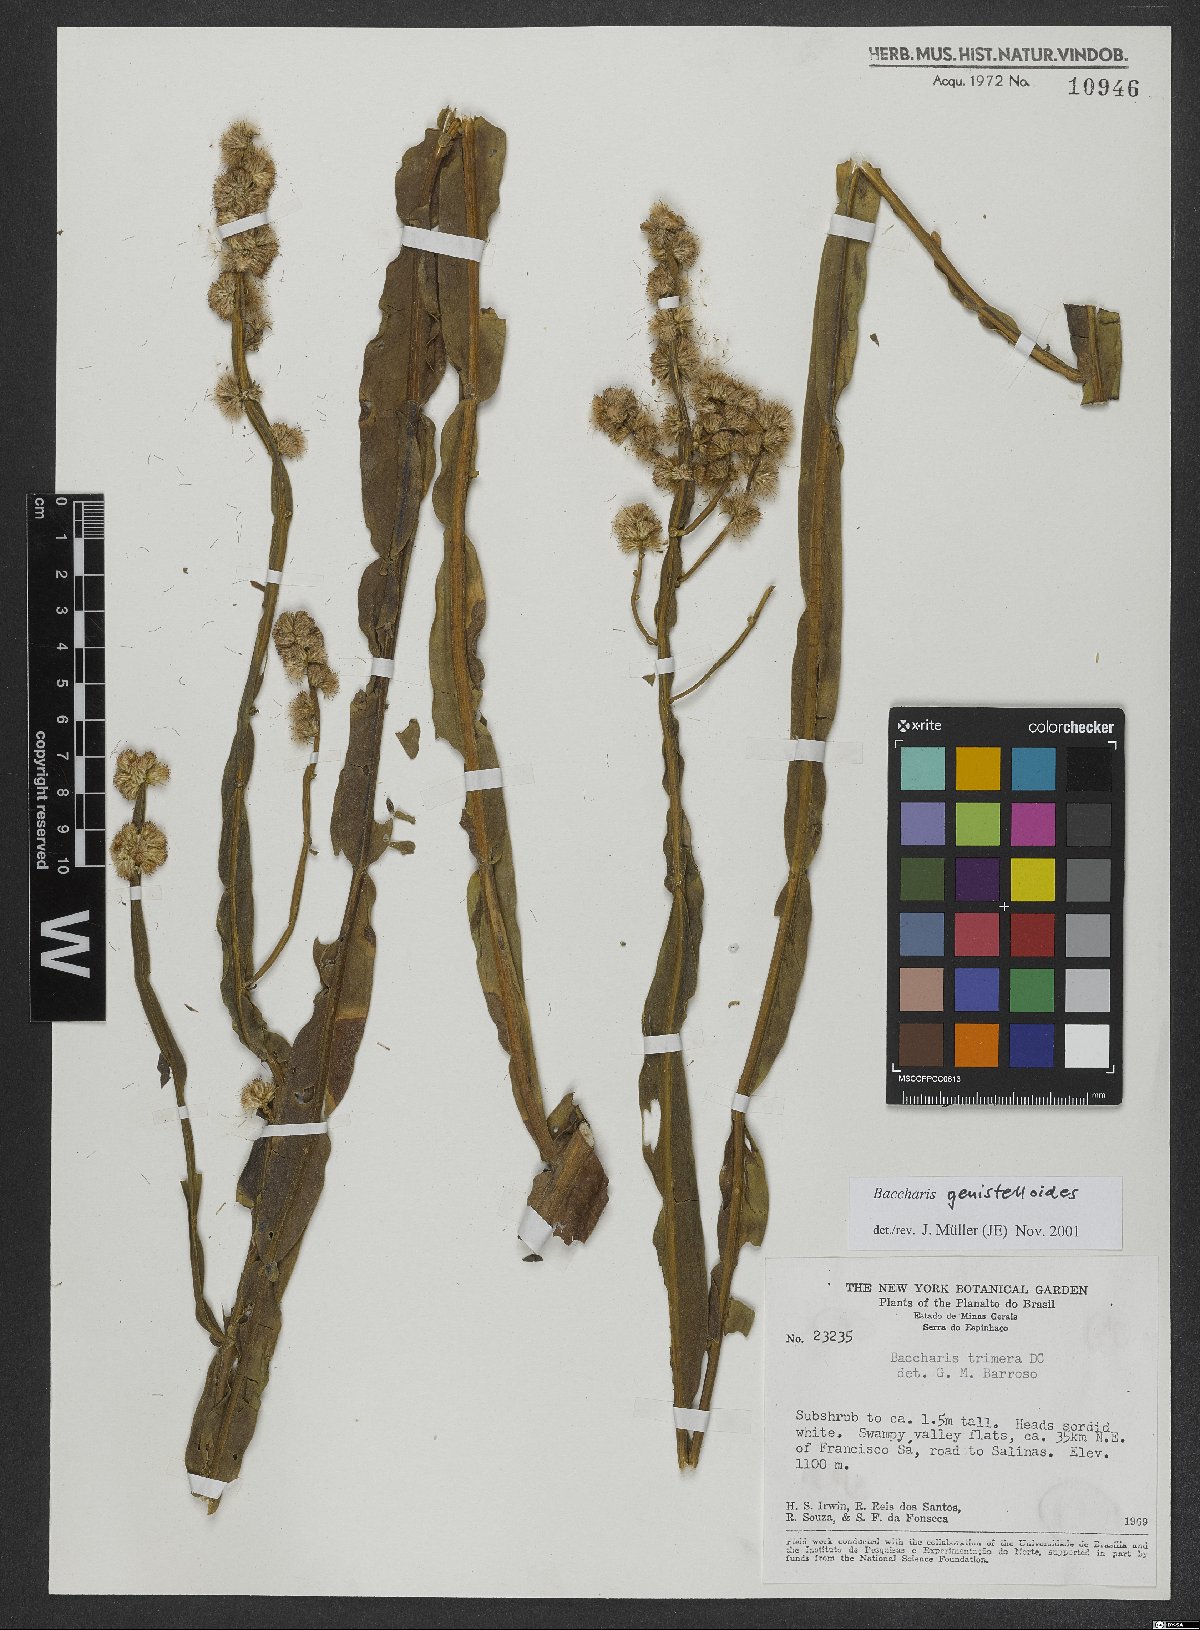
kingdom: Plantae
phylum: Tracheophyta
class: Magnoliopsida
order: Asterales
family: Asteraceae
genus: Baccharis
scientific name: Baccharis genistelloides
